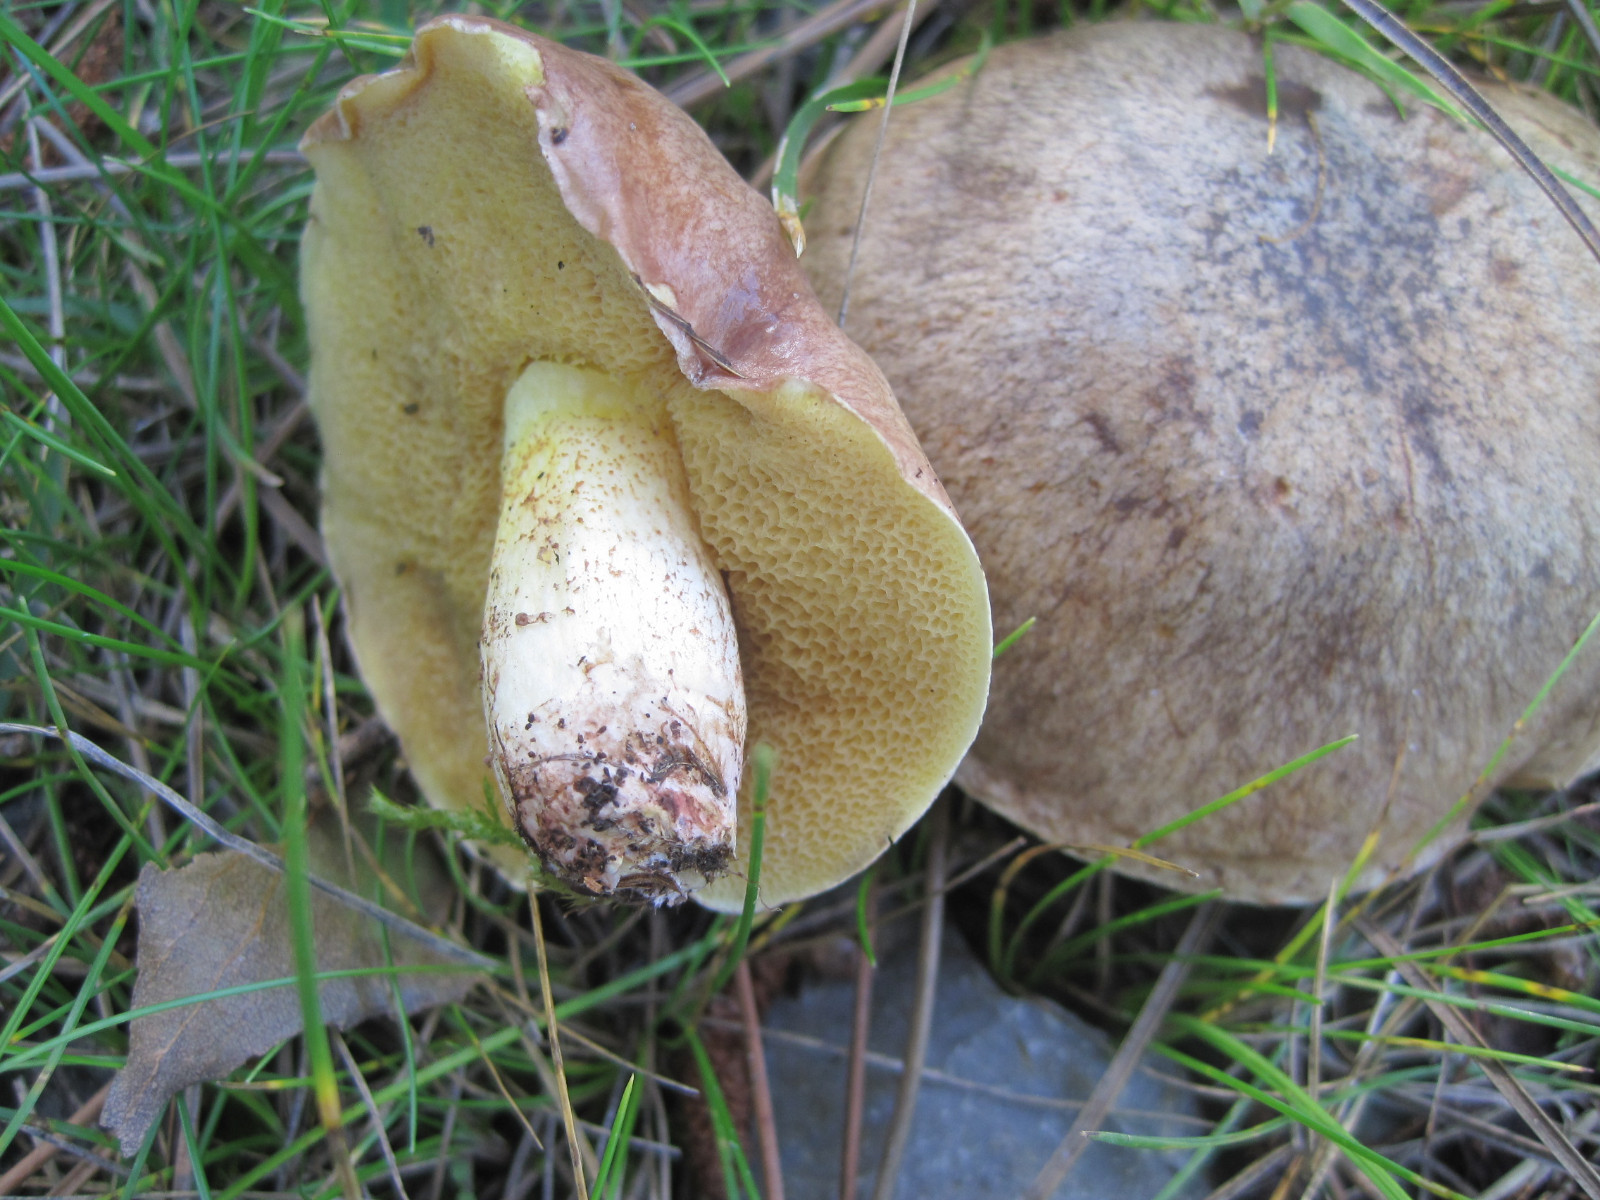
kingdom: Fungi
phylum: Basidiomycota
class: Agaricomycetes
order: Boletales
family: Suillaceae
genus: Suillus
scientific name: Suillus collinitus
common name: rosafodet slimrørhat
